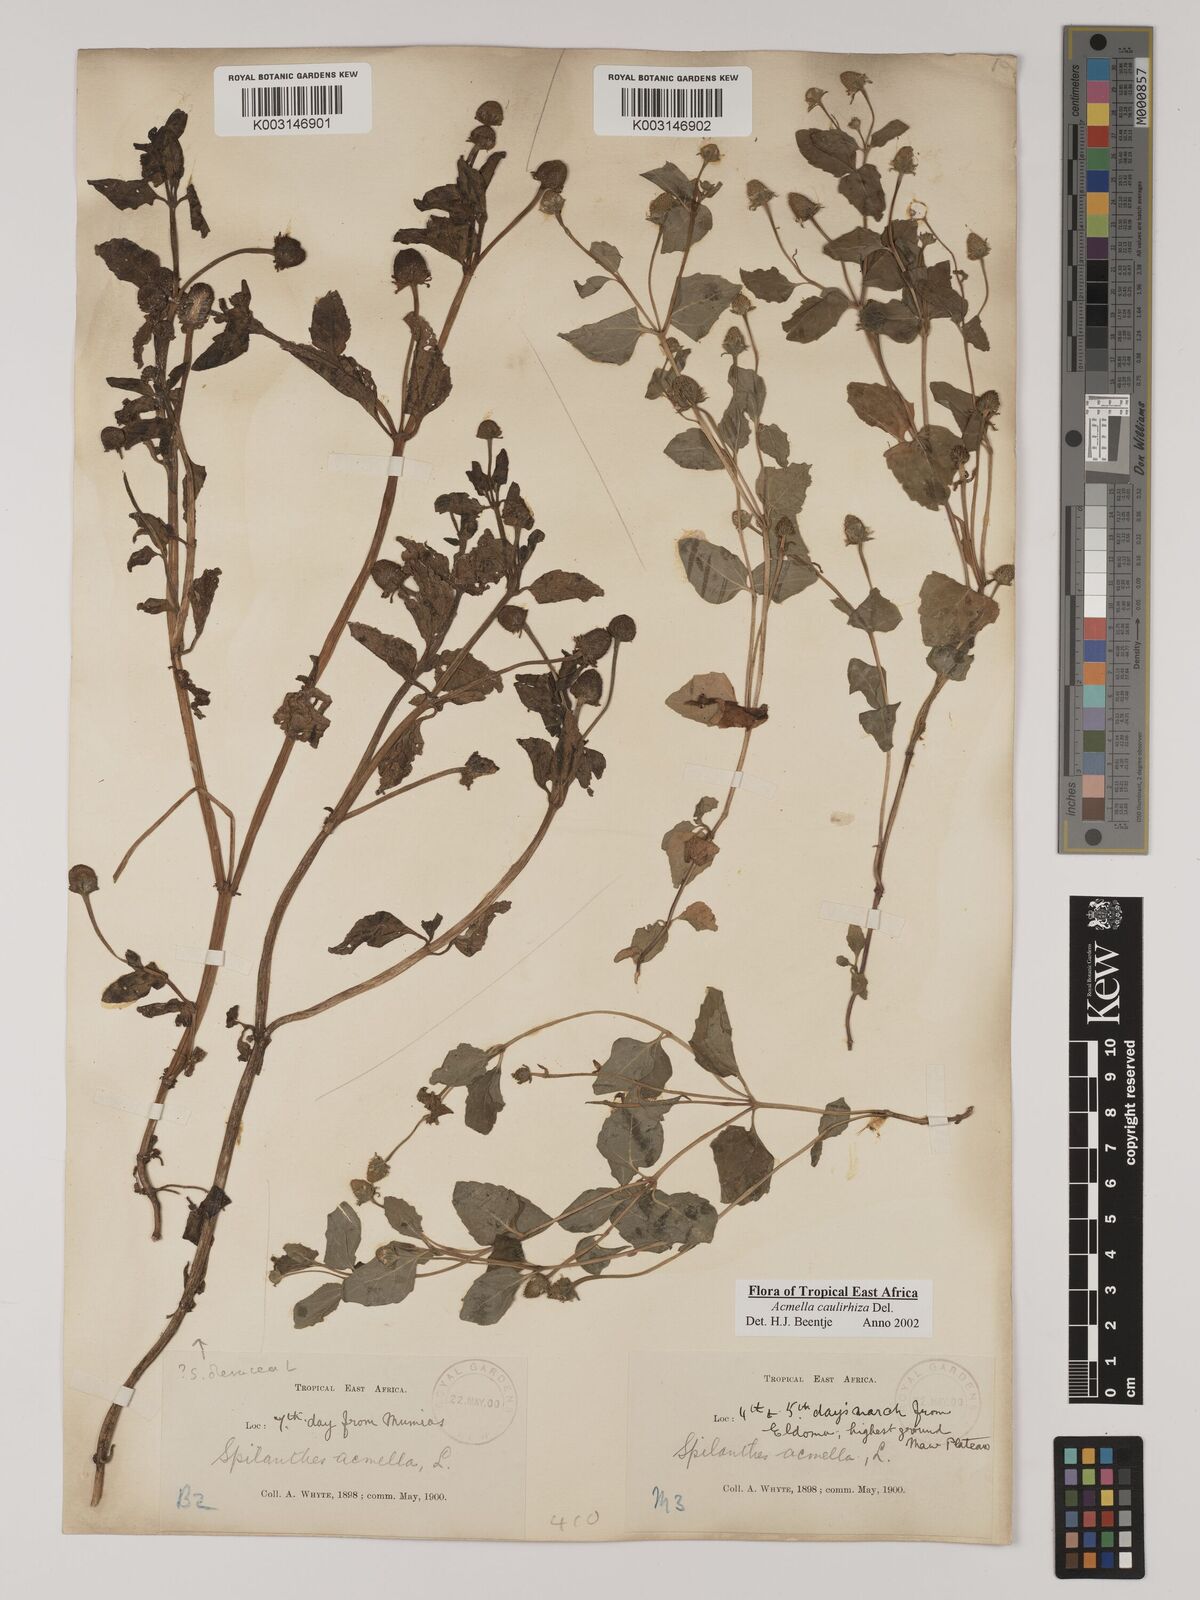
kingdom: Plantae
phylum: Tracheophyta
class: Magnoliopsida
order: Asterales
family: Asteraceae
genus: Acmella
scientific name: Acmella caulirhiza
